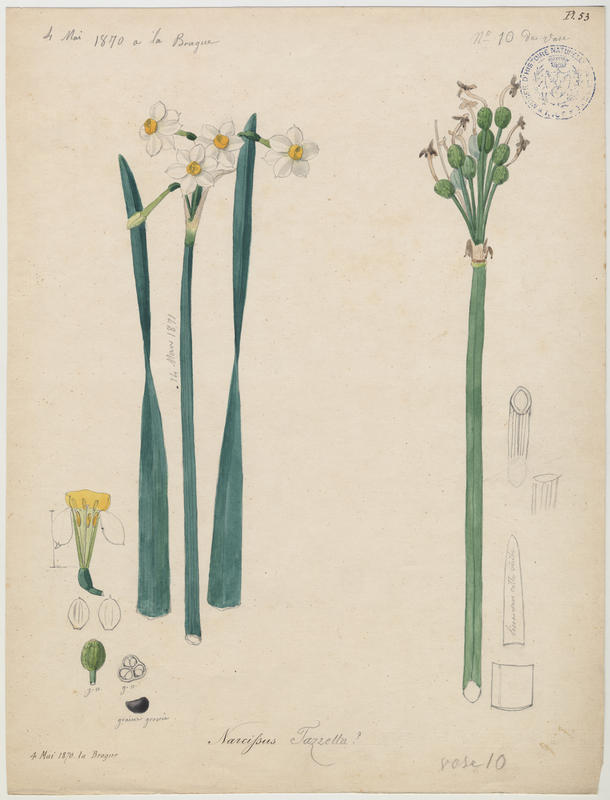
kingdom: Plantae
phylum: Tracheophyta
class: Liliopsida
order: Asparagales
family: Amaryllidaceae
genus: Narcissus
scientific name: Narcissus tazetta
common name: Bunch-flowered daffodil
